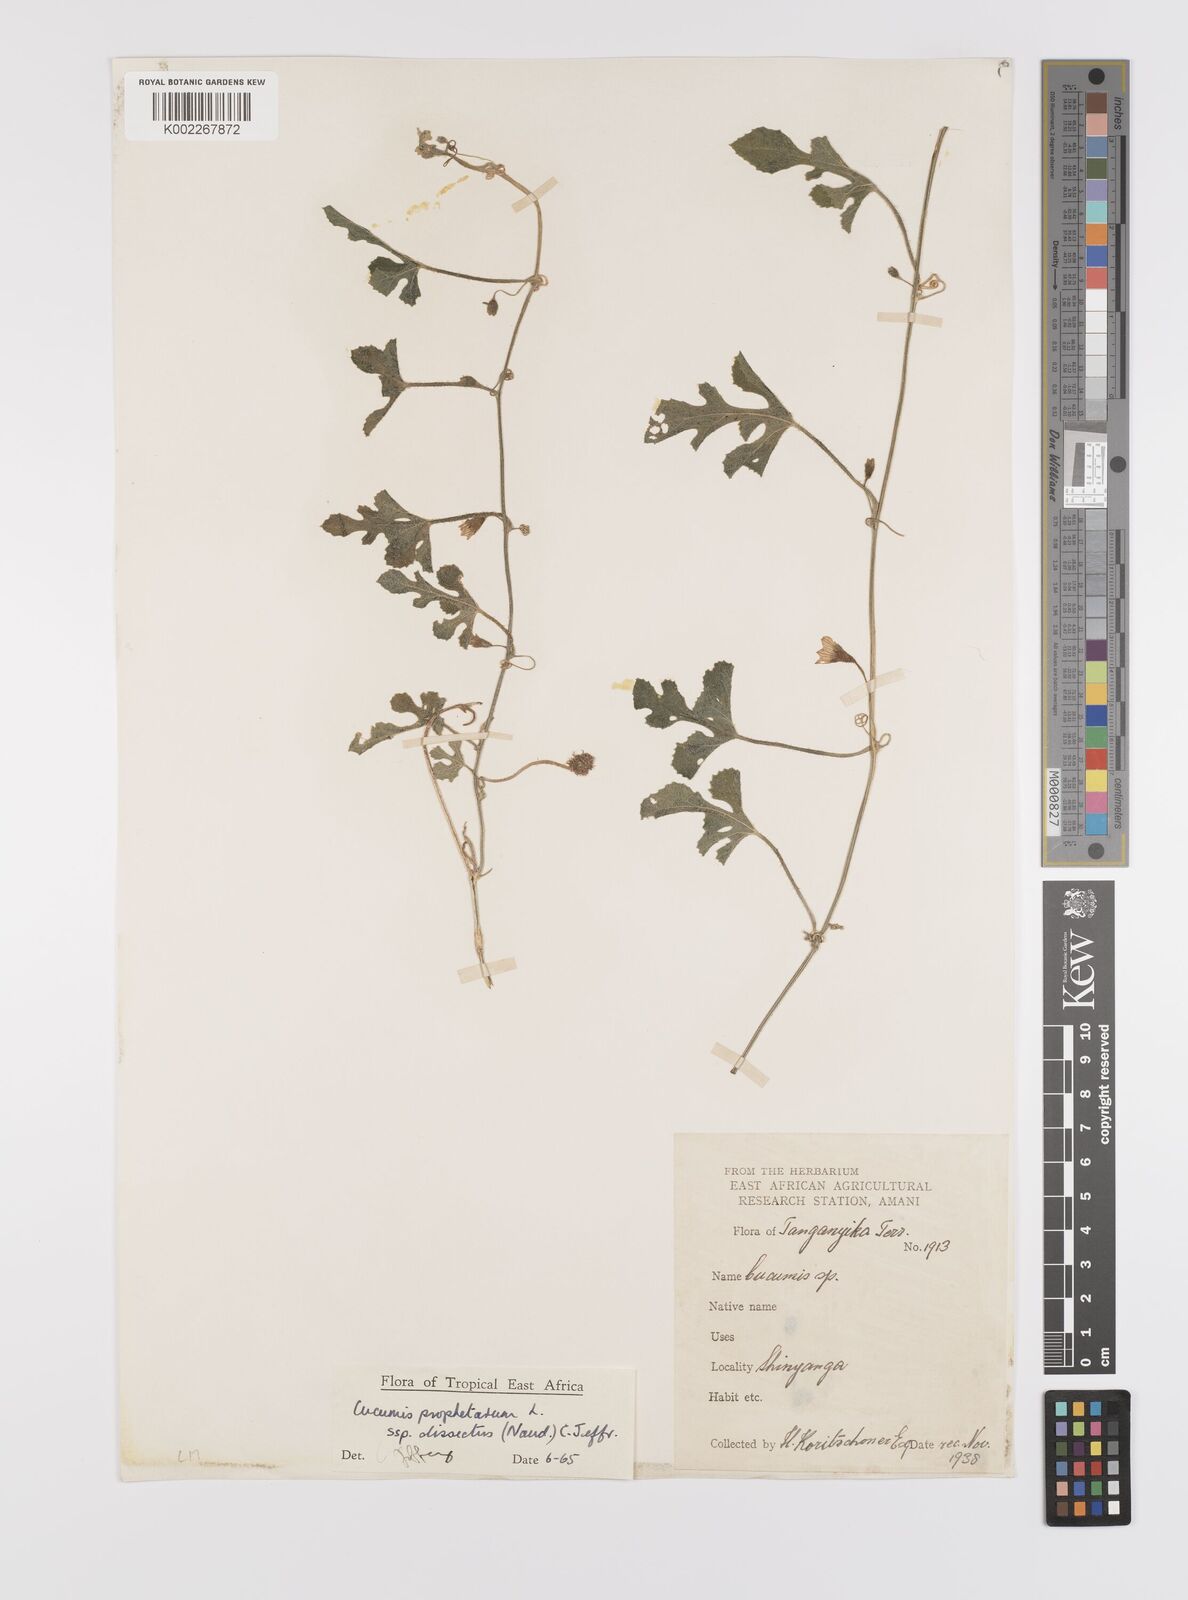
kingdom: Plantae
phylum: Tracheophyta
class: Magnoliopsida
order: Cucurbitales
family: Cucurbitaceae
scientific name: Cucurbitaceae
